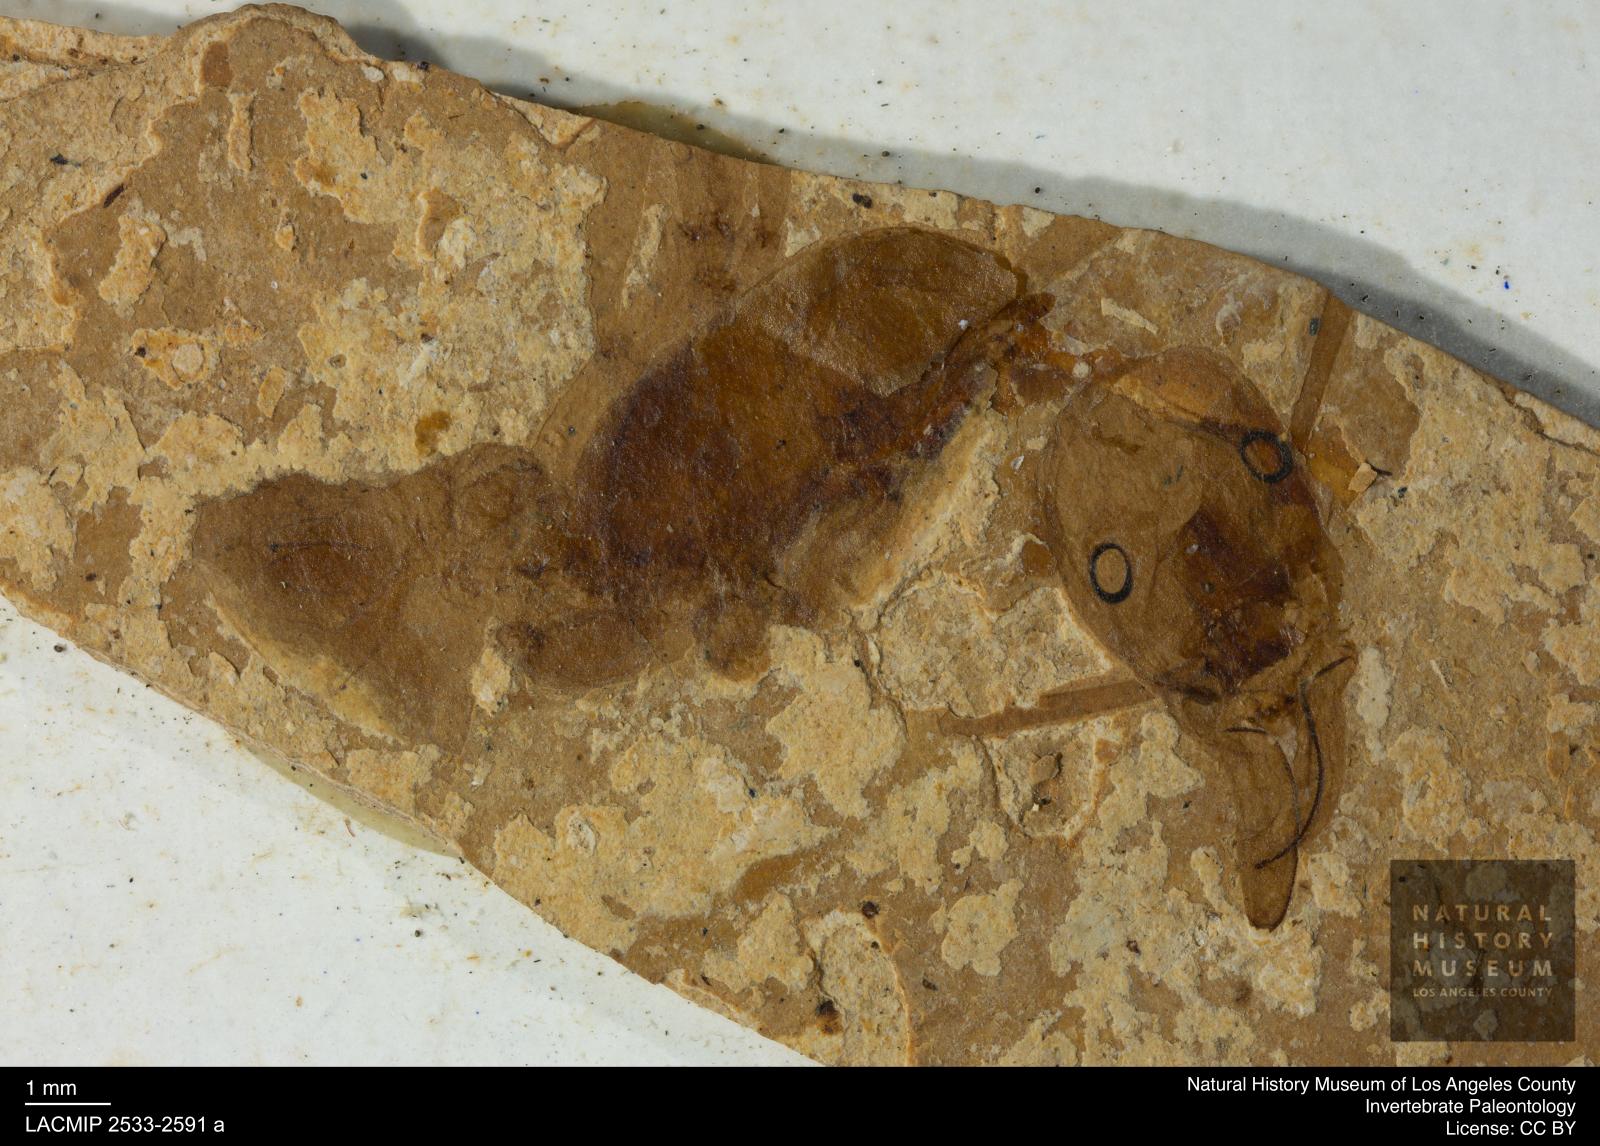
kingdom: Animalia
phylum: Arthropoda
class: Insecta
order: Hymenoptera
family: Formicidae
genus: Prionomyrmex
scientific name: Prionomyrmex
